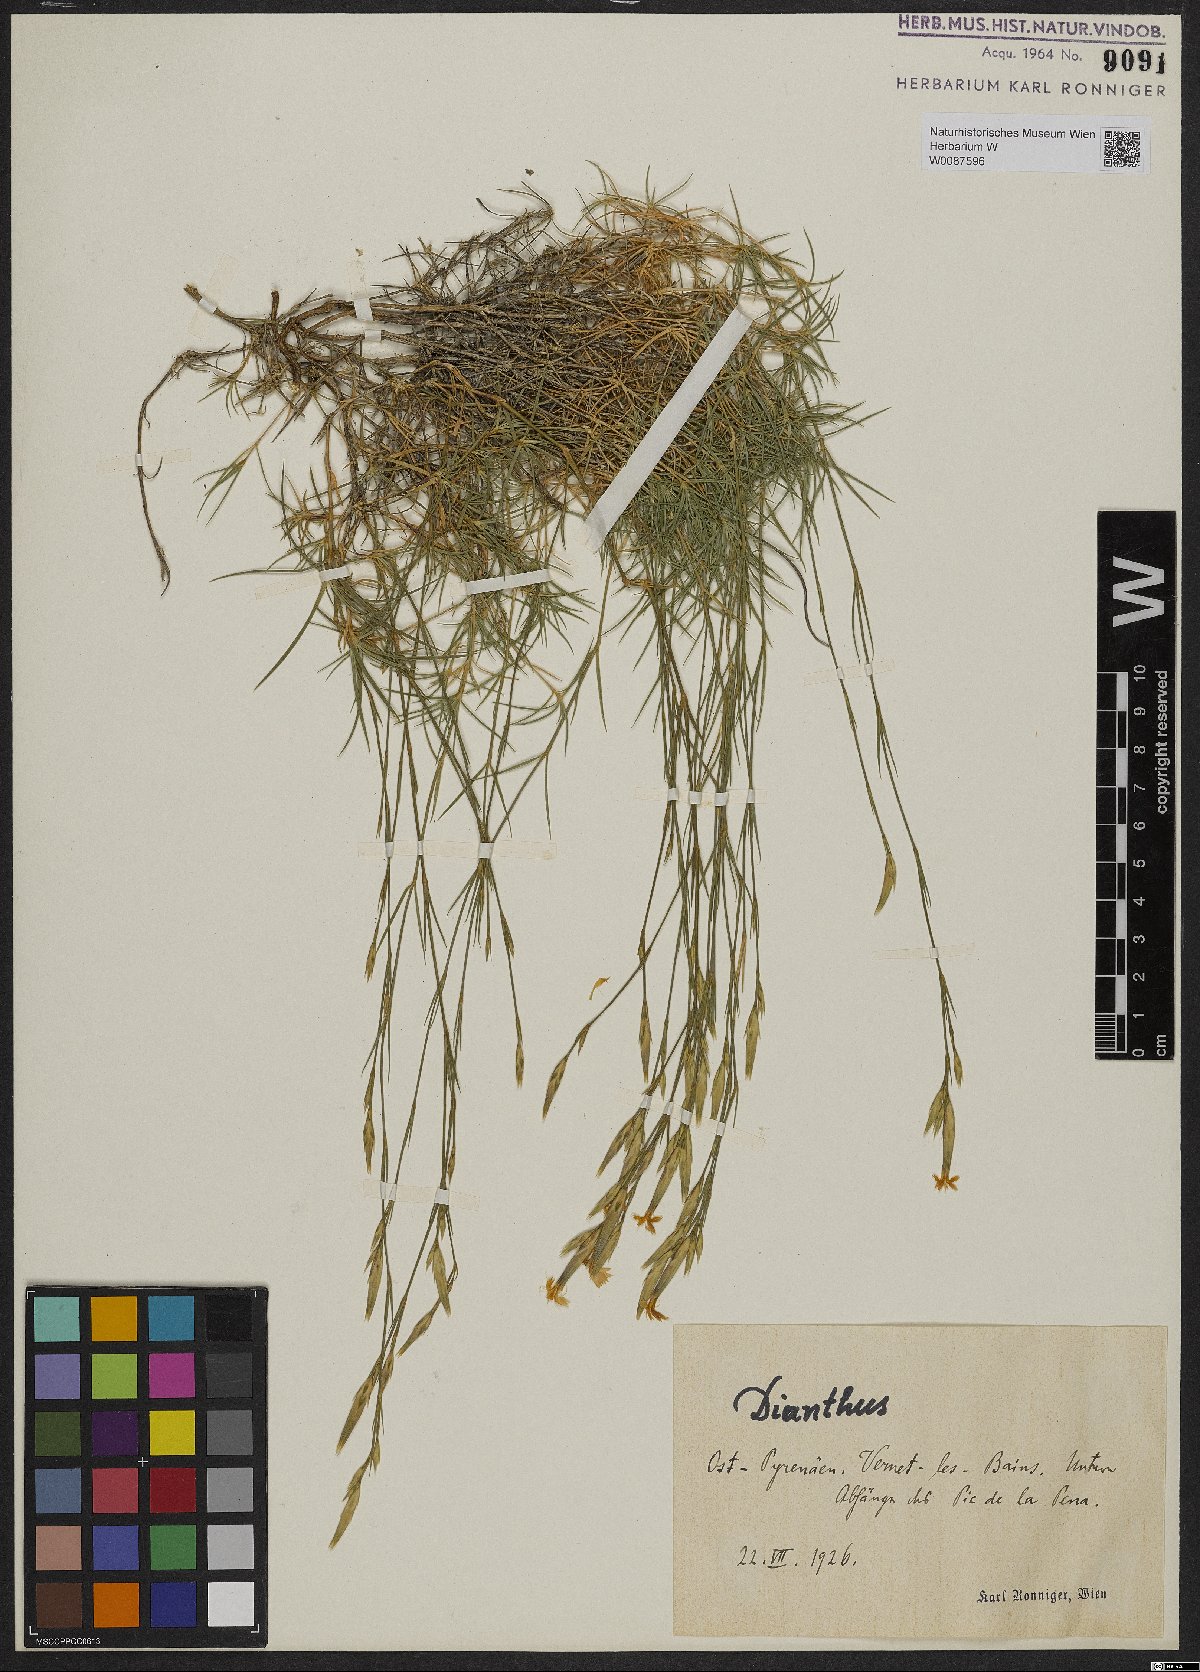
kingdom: Plantae
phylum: Tracheophyta
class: Magnoliopsida
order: Caryophyllales
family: Caryophyllaceae
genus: Dianthus
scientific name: Dianthus
